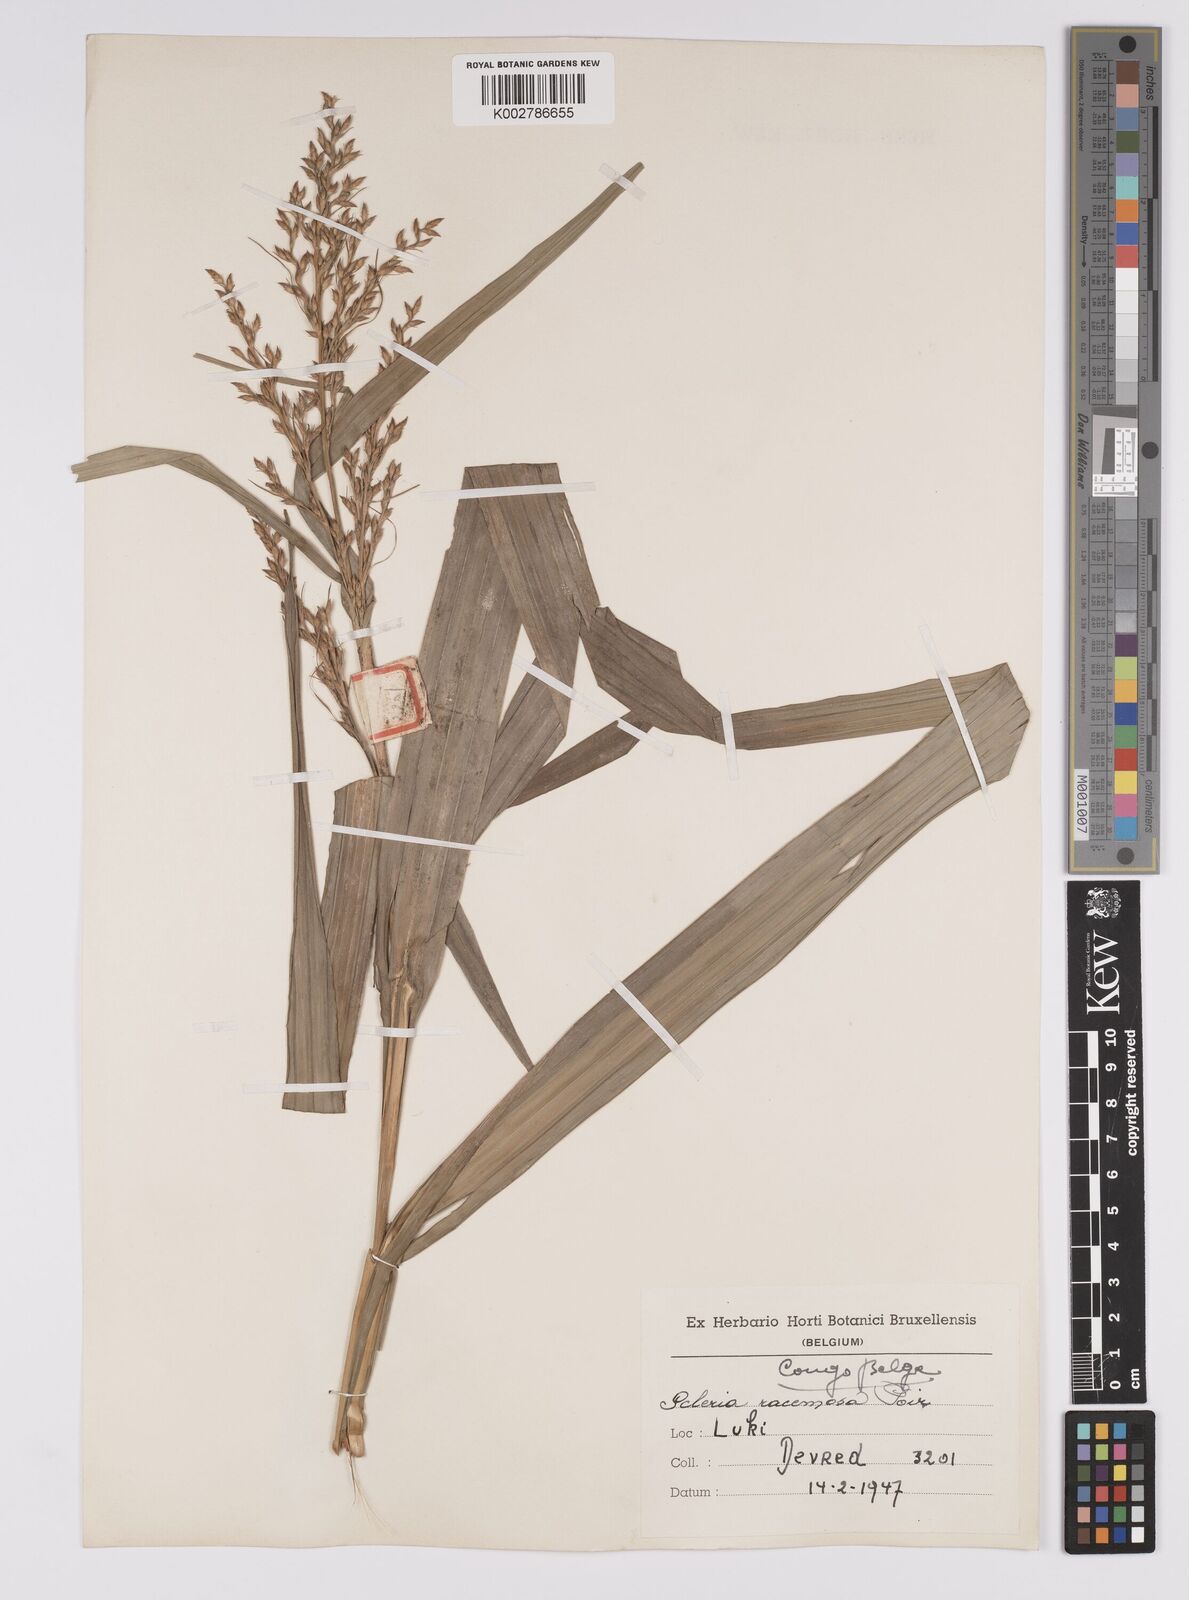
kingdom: Plantae
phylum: Tracheophyta
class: Liliopsida
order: Poales
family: Cyperaceae
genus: Scleria
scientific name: Scleria racemosa
